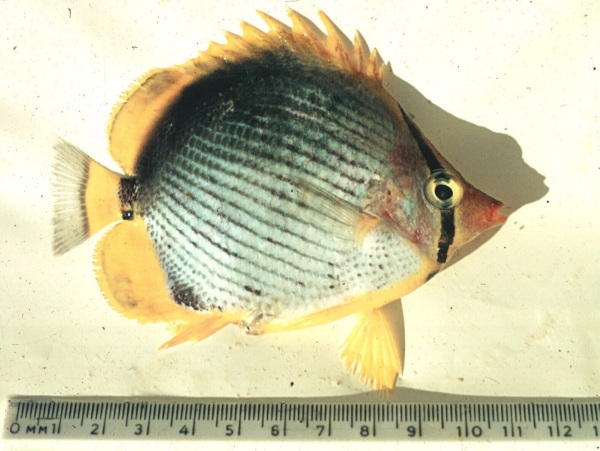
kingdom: Animalia
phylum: Chordata
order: Perciformes
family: Chaetodontidae
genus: Chaetodon
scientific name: Chaetodon melannotus
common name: Blackback butterflyfish
